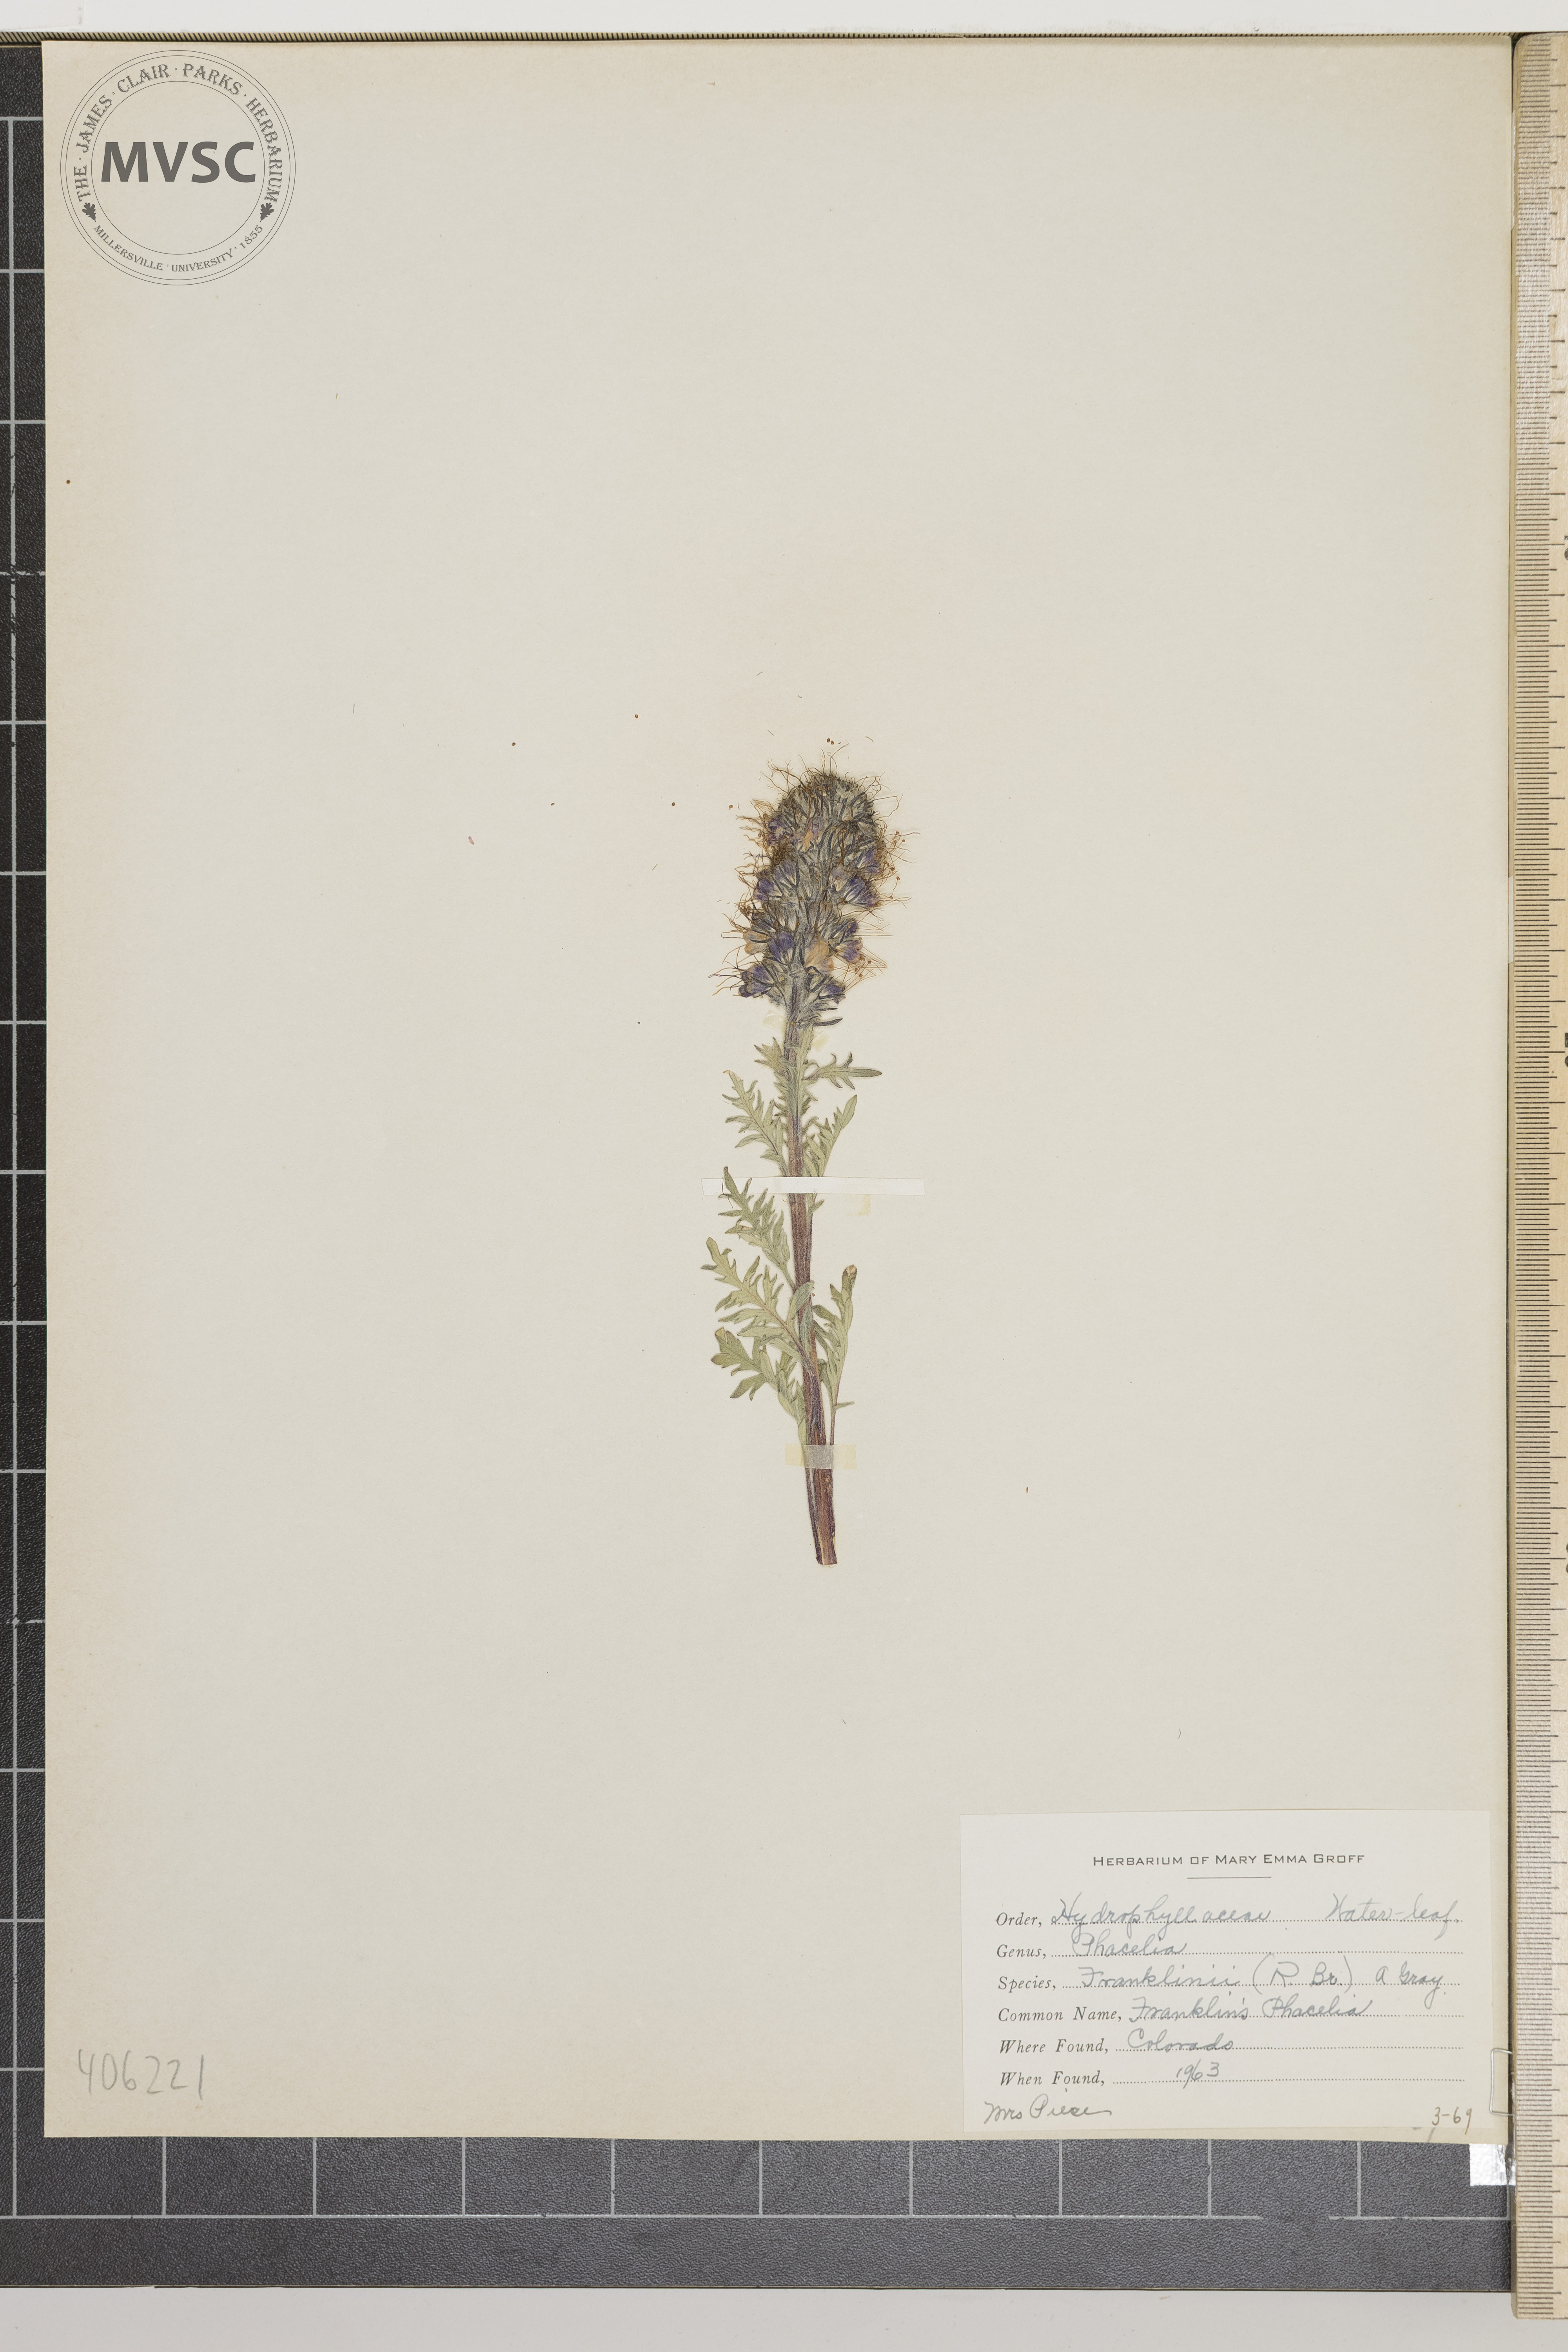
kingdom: Plantae
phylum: Tracheophyta
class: Magnoliopsida
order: Boraginales
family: Hydrophyllaceae
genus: Phacelia
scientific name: Phacelia franklinii
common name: Franklin's Phacelia
